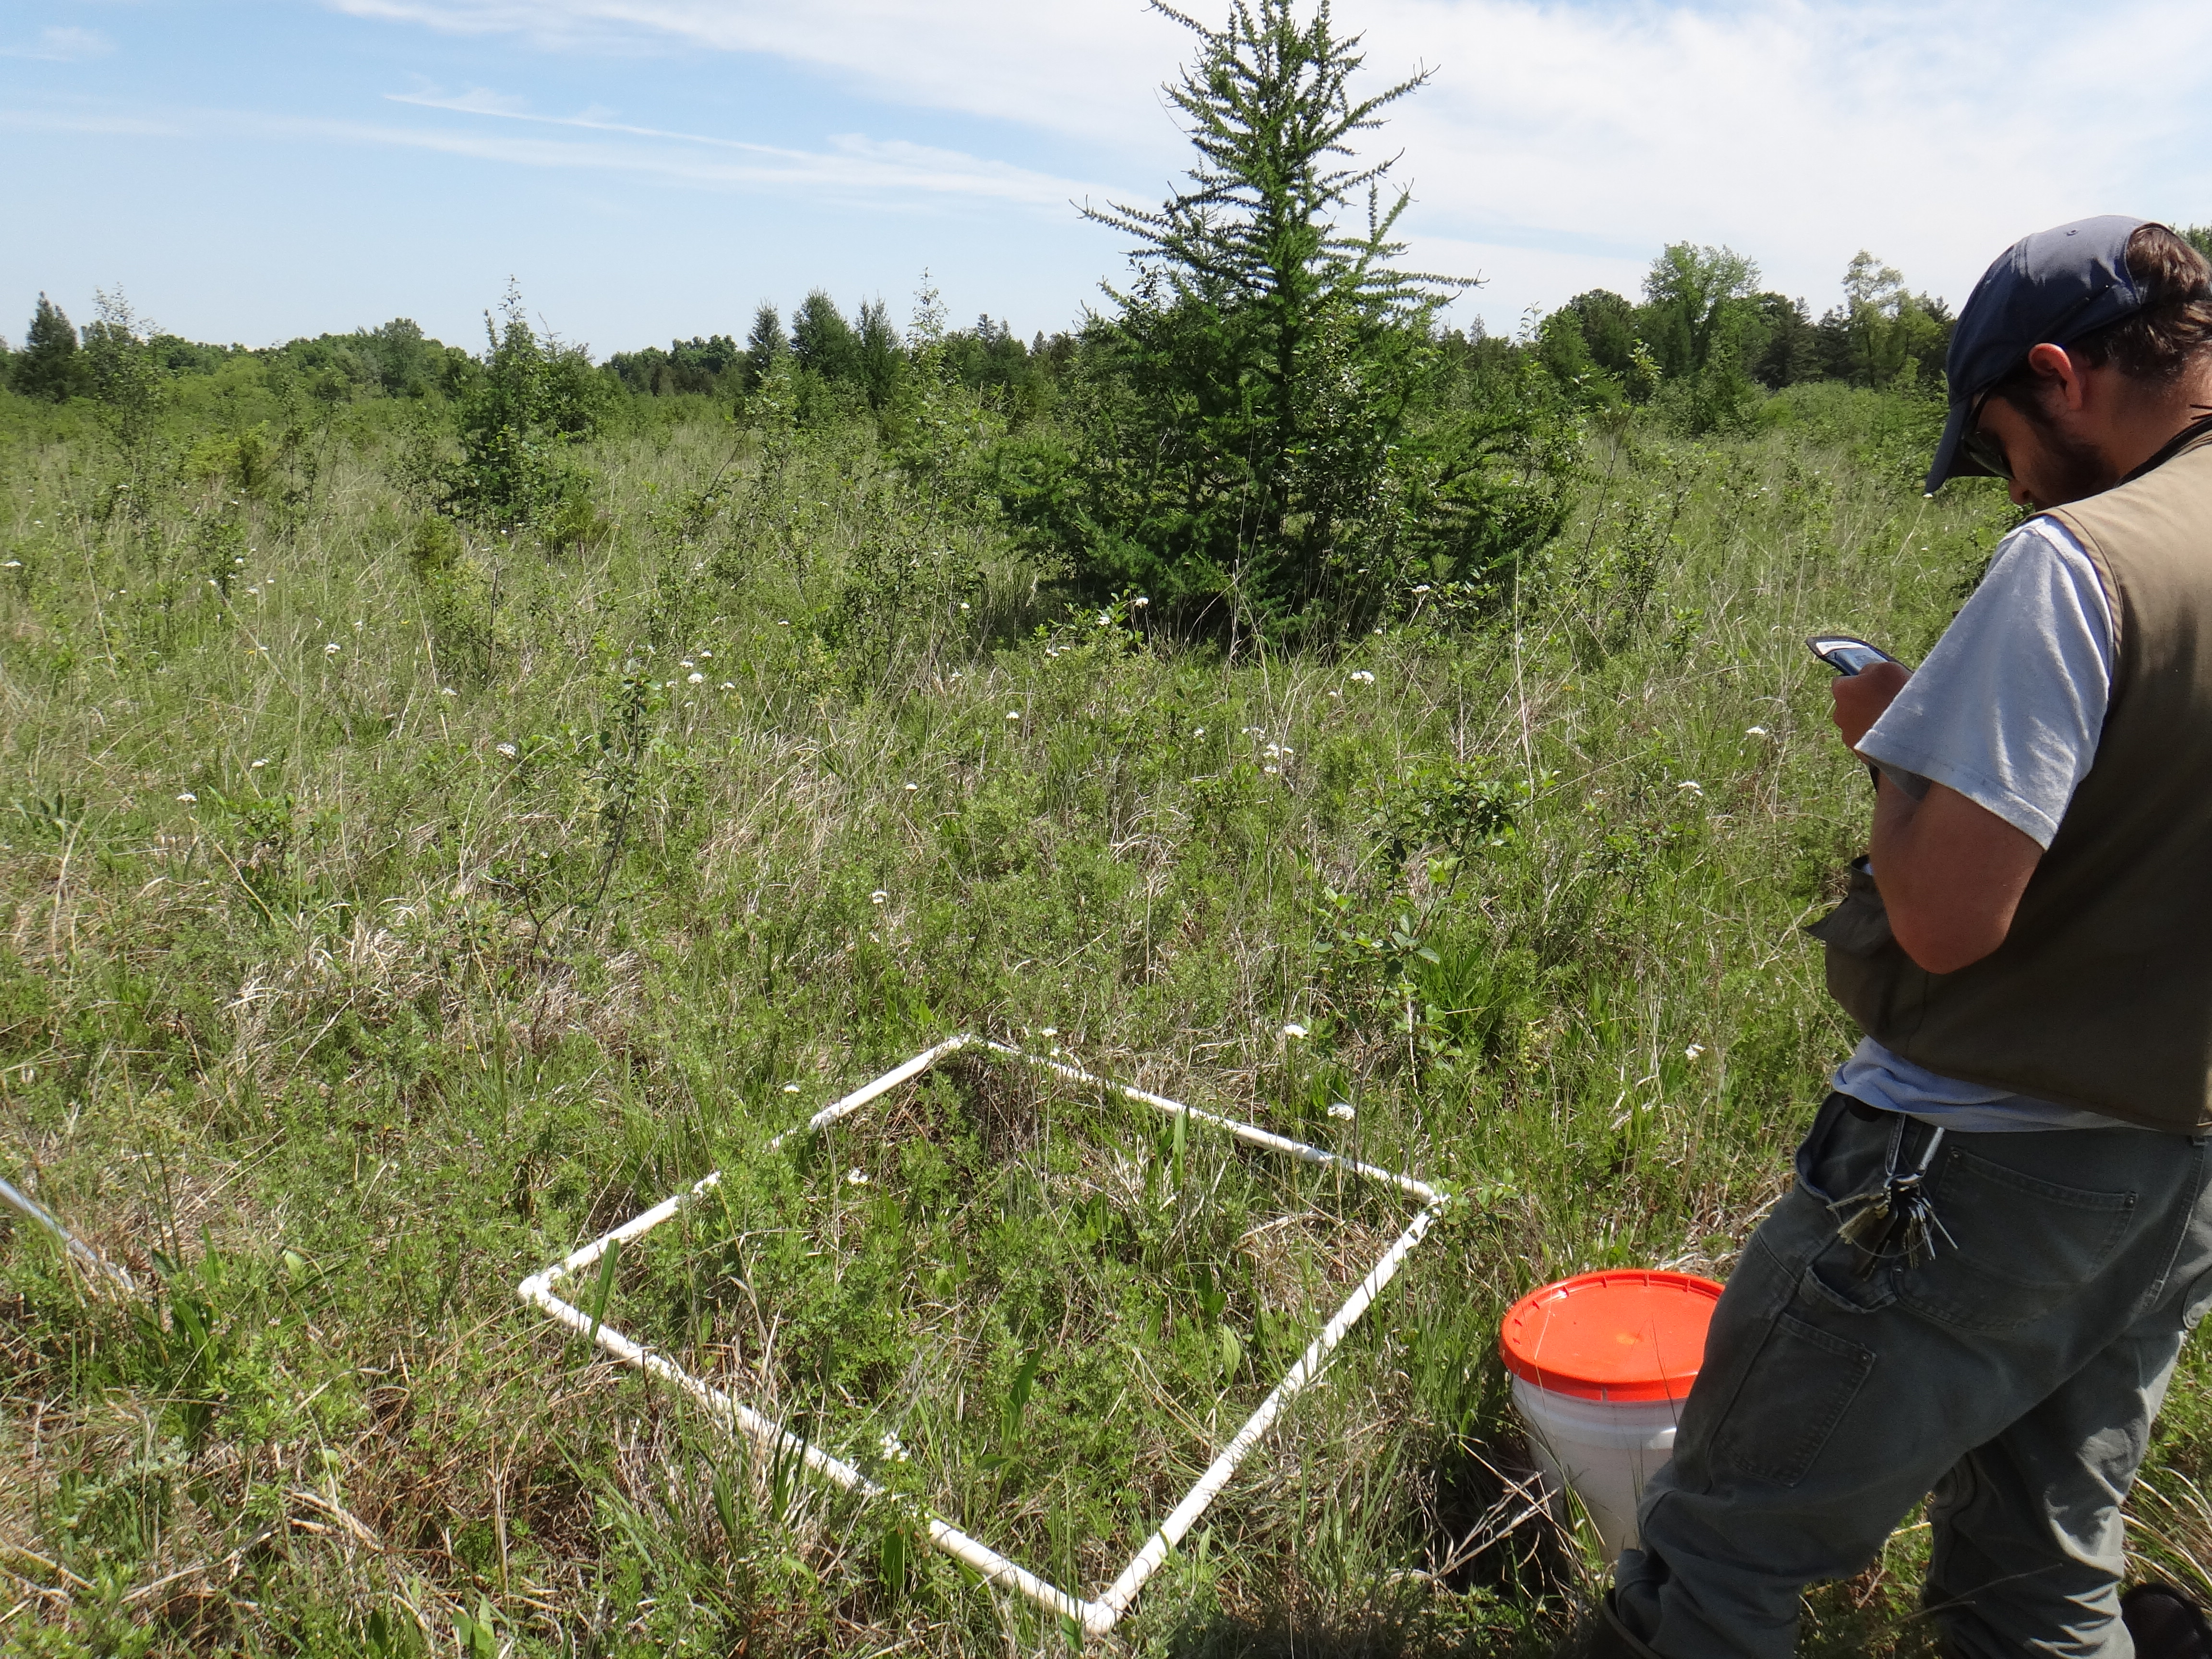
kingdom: Plantae
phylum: Tracheophyta
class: Liliopsida
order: Poales
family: Poaceae
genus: Muhlenbergia
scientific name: Muhlenbergia mexicana
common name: Mexican muhly
